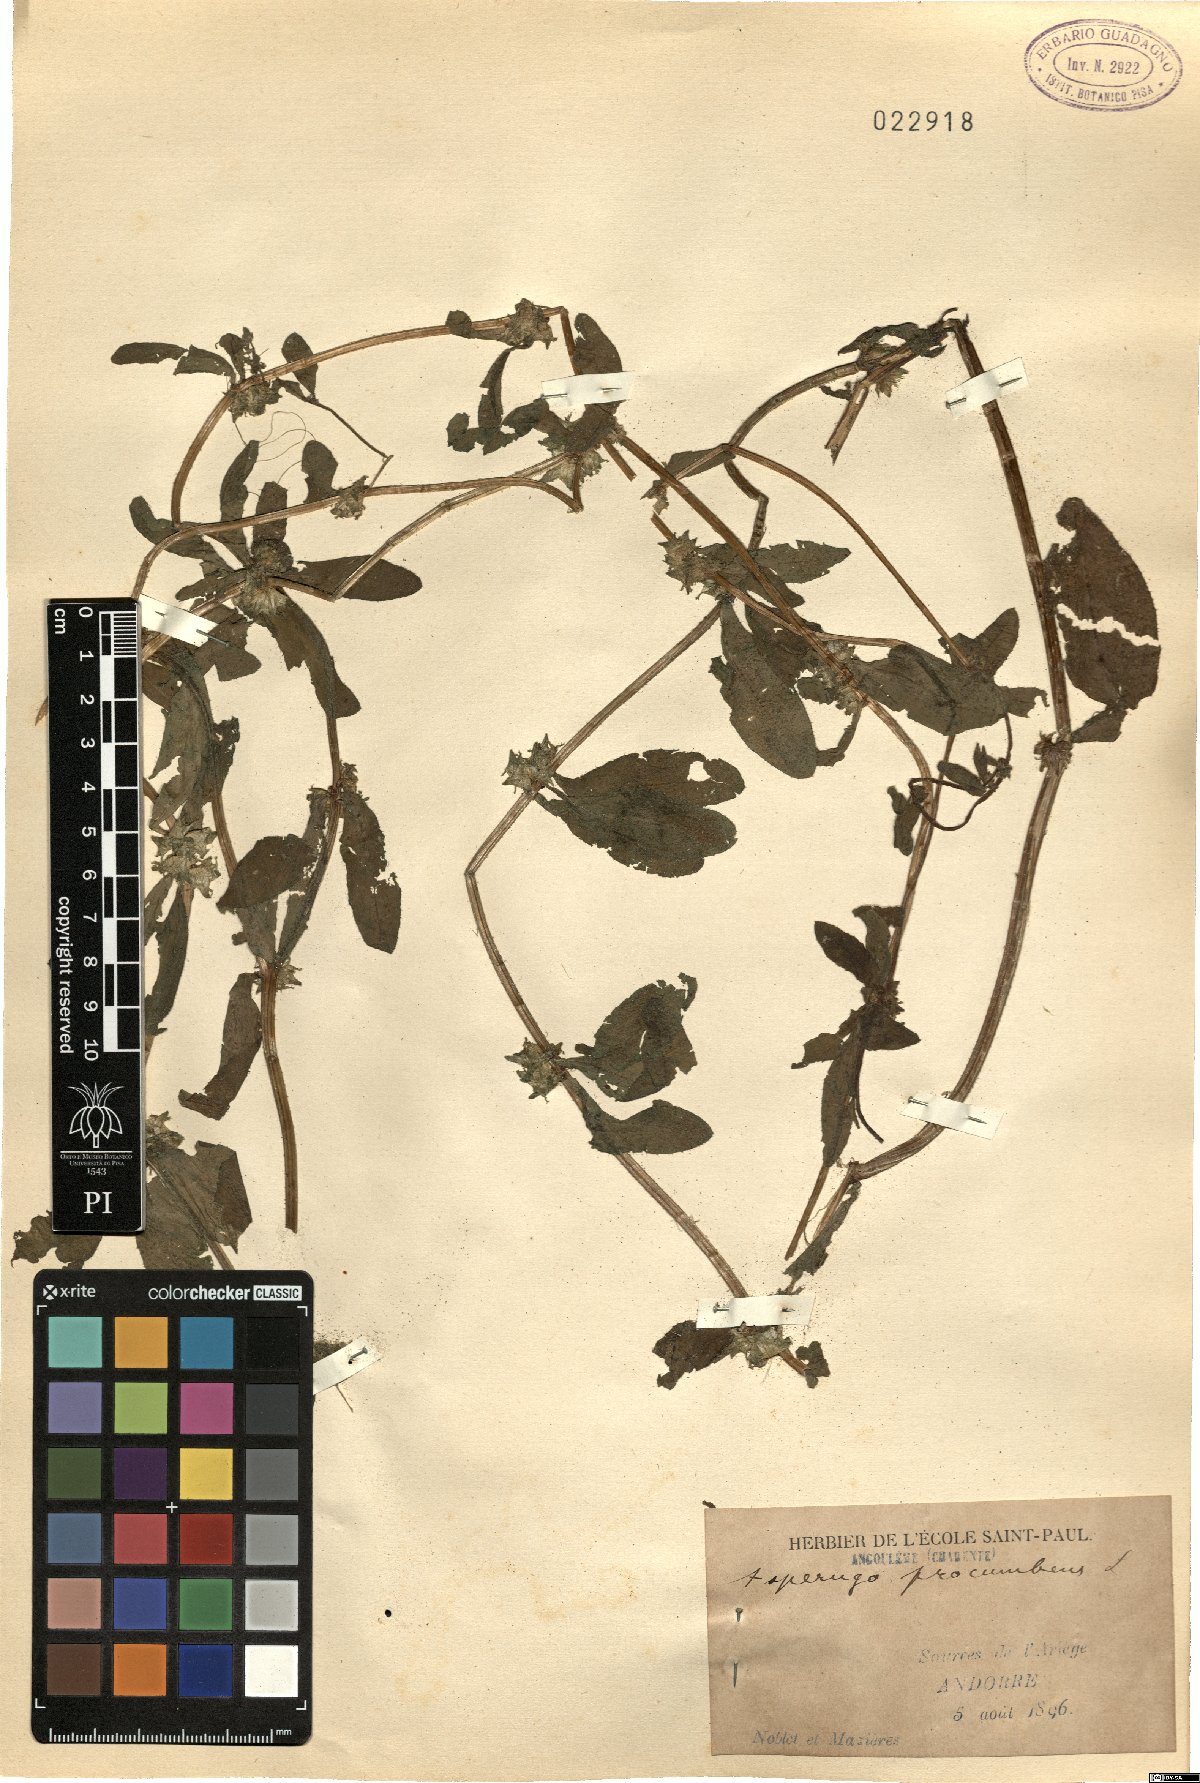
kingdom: Plantae
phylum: Tracheophyta
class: Magnoliopsida
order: Boraginales
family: Boraginaceae
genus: Asperugo
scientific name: Asperugo procumbens
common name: Madwort
